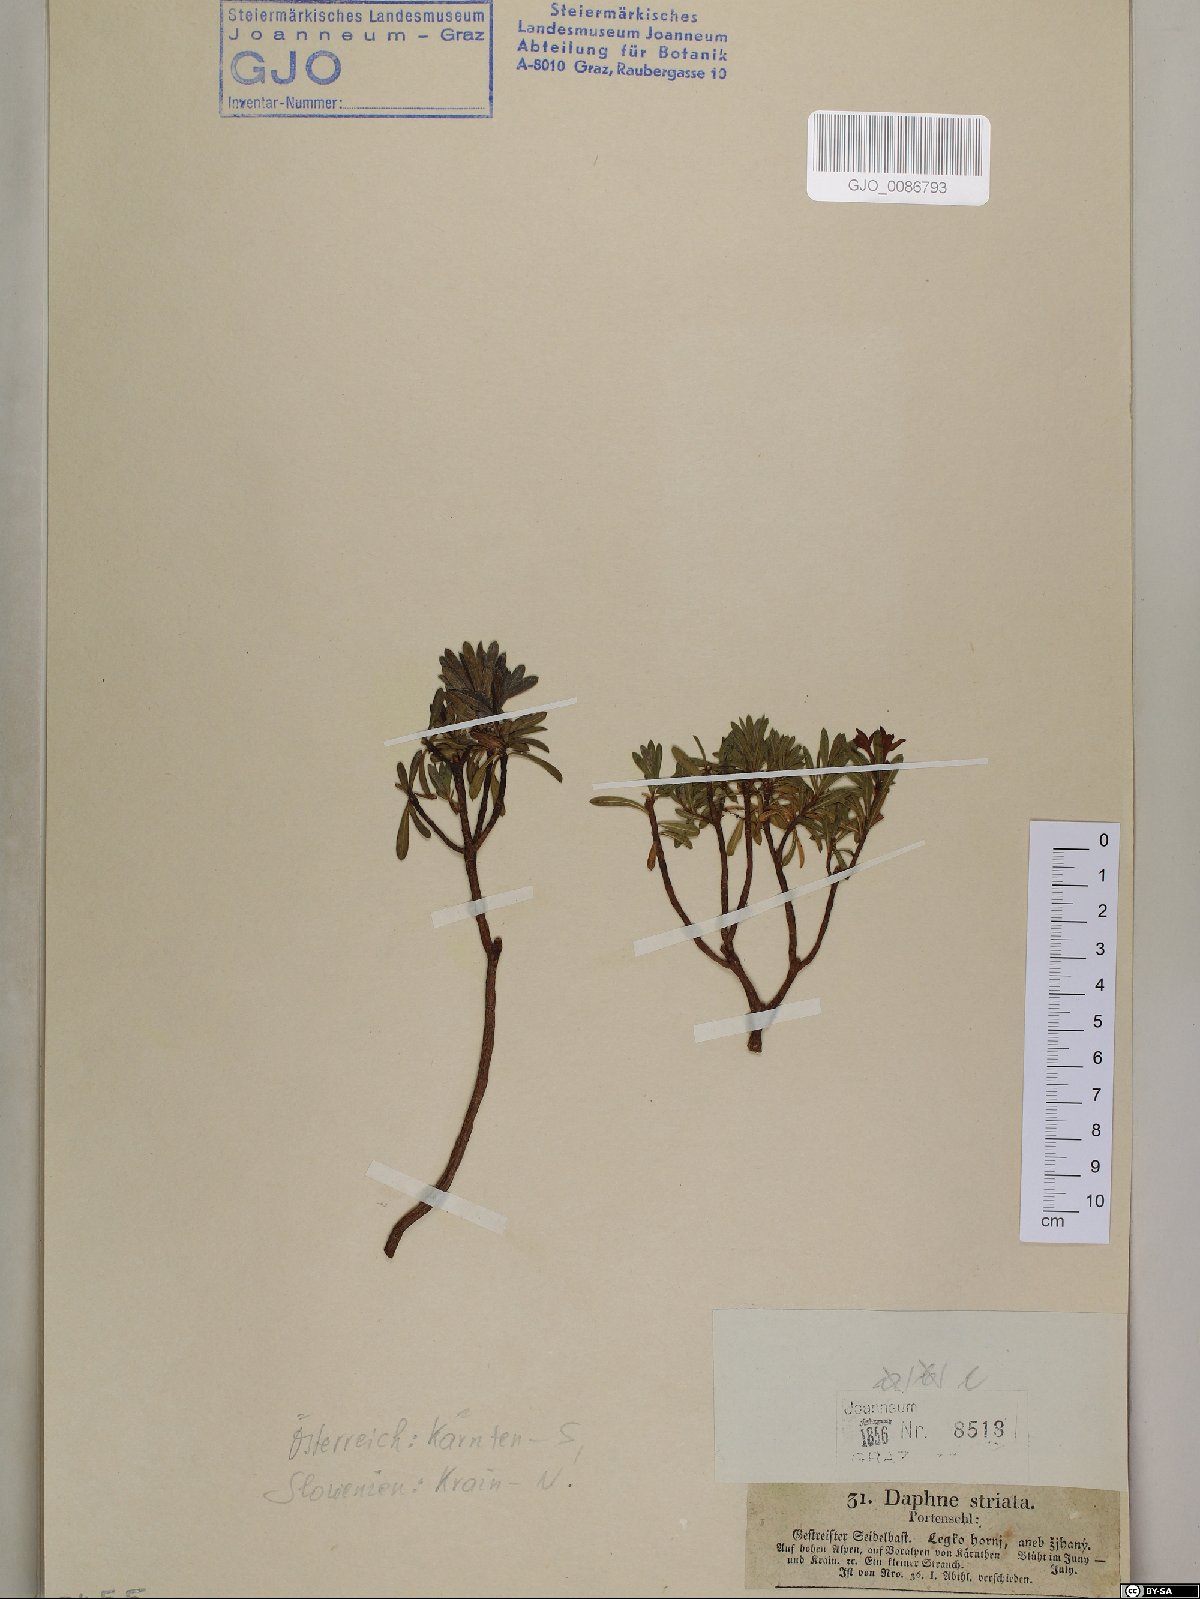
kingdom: Plantae
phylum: Tracheophyta
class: Magnoliopsida
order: Malvales
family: Thymelaeaceae
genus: Daphne
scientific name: Daphne striata
